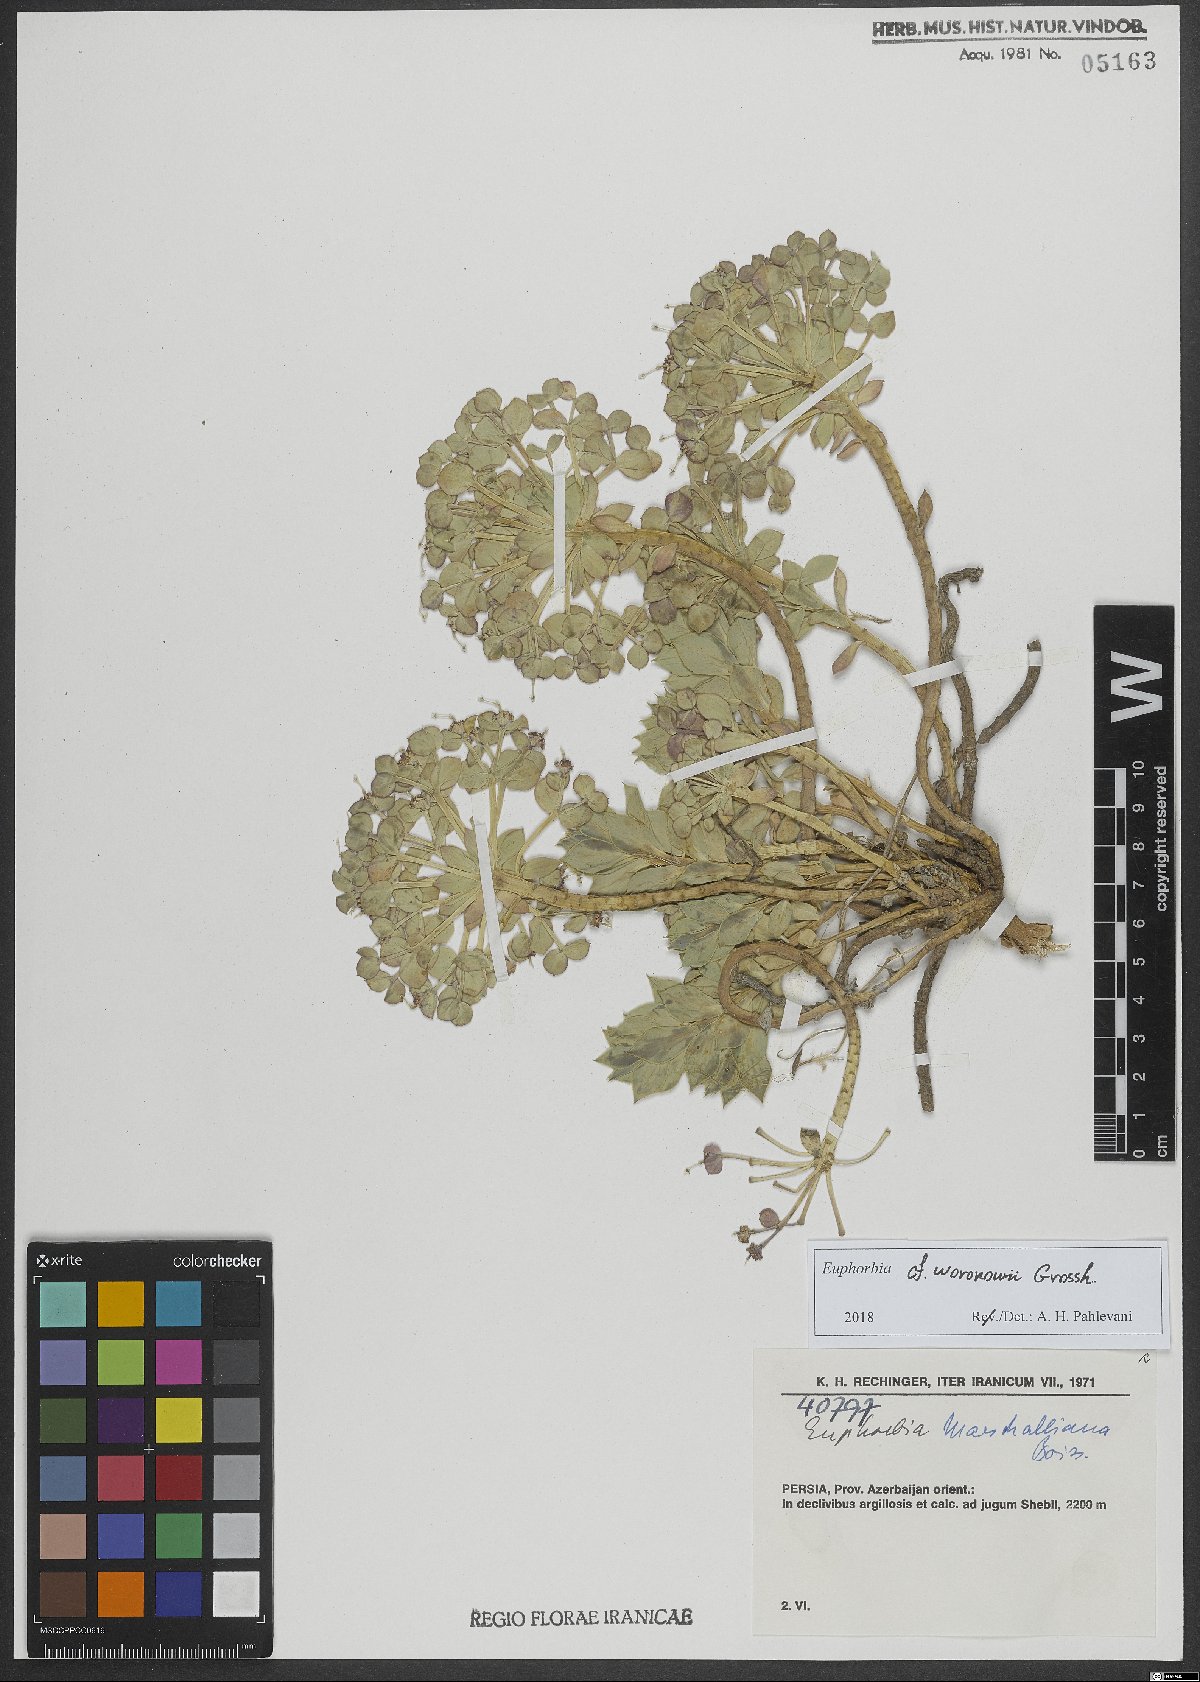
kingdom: Plantae
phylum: Tracheophyta
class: Magnoliopsida
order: Malpighiales
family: Euphorbiaceae
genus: Euphorbia
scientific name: Euphorbia marschalliana
